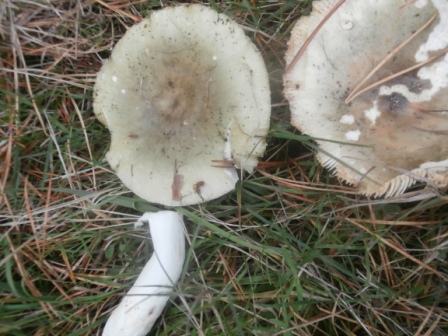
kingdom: Fungi
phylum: Basidiomycota
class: Agaricomycetes
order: Russulales
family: Russulaceae
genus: Russula
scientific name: Russula aeruginea
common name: græsgrøn skørhat
